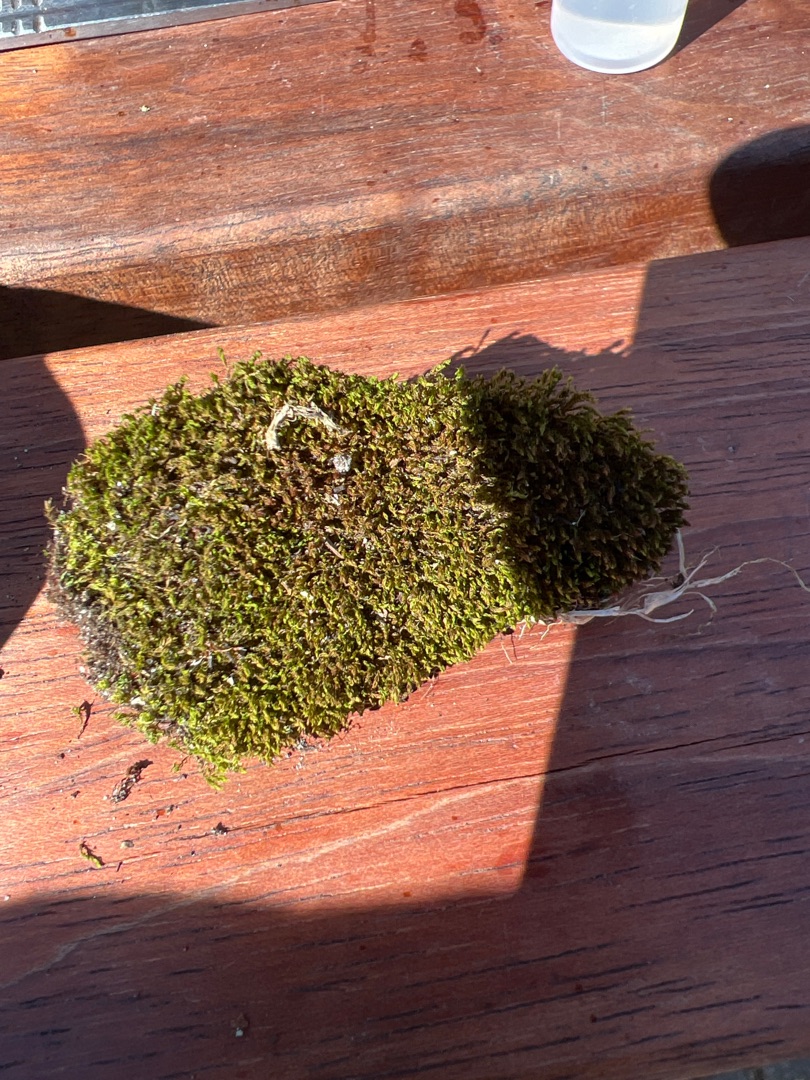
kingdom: Plantae
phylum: Bryophyta
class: Bryopsida
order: Dicranales
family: Ditrichaceae
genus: Ceratodon
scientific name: Ceratodon purpureus
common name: Rød horntand
